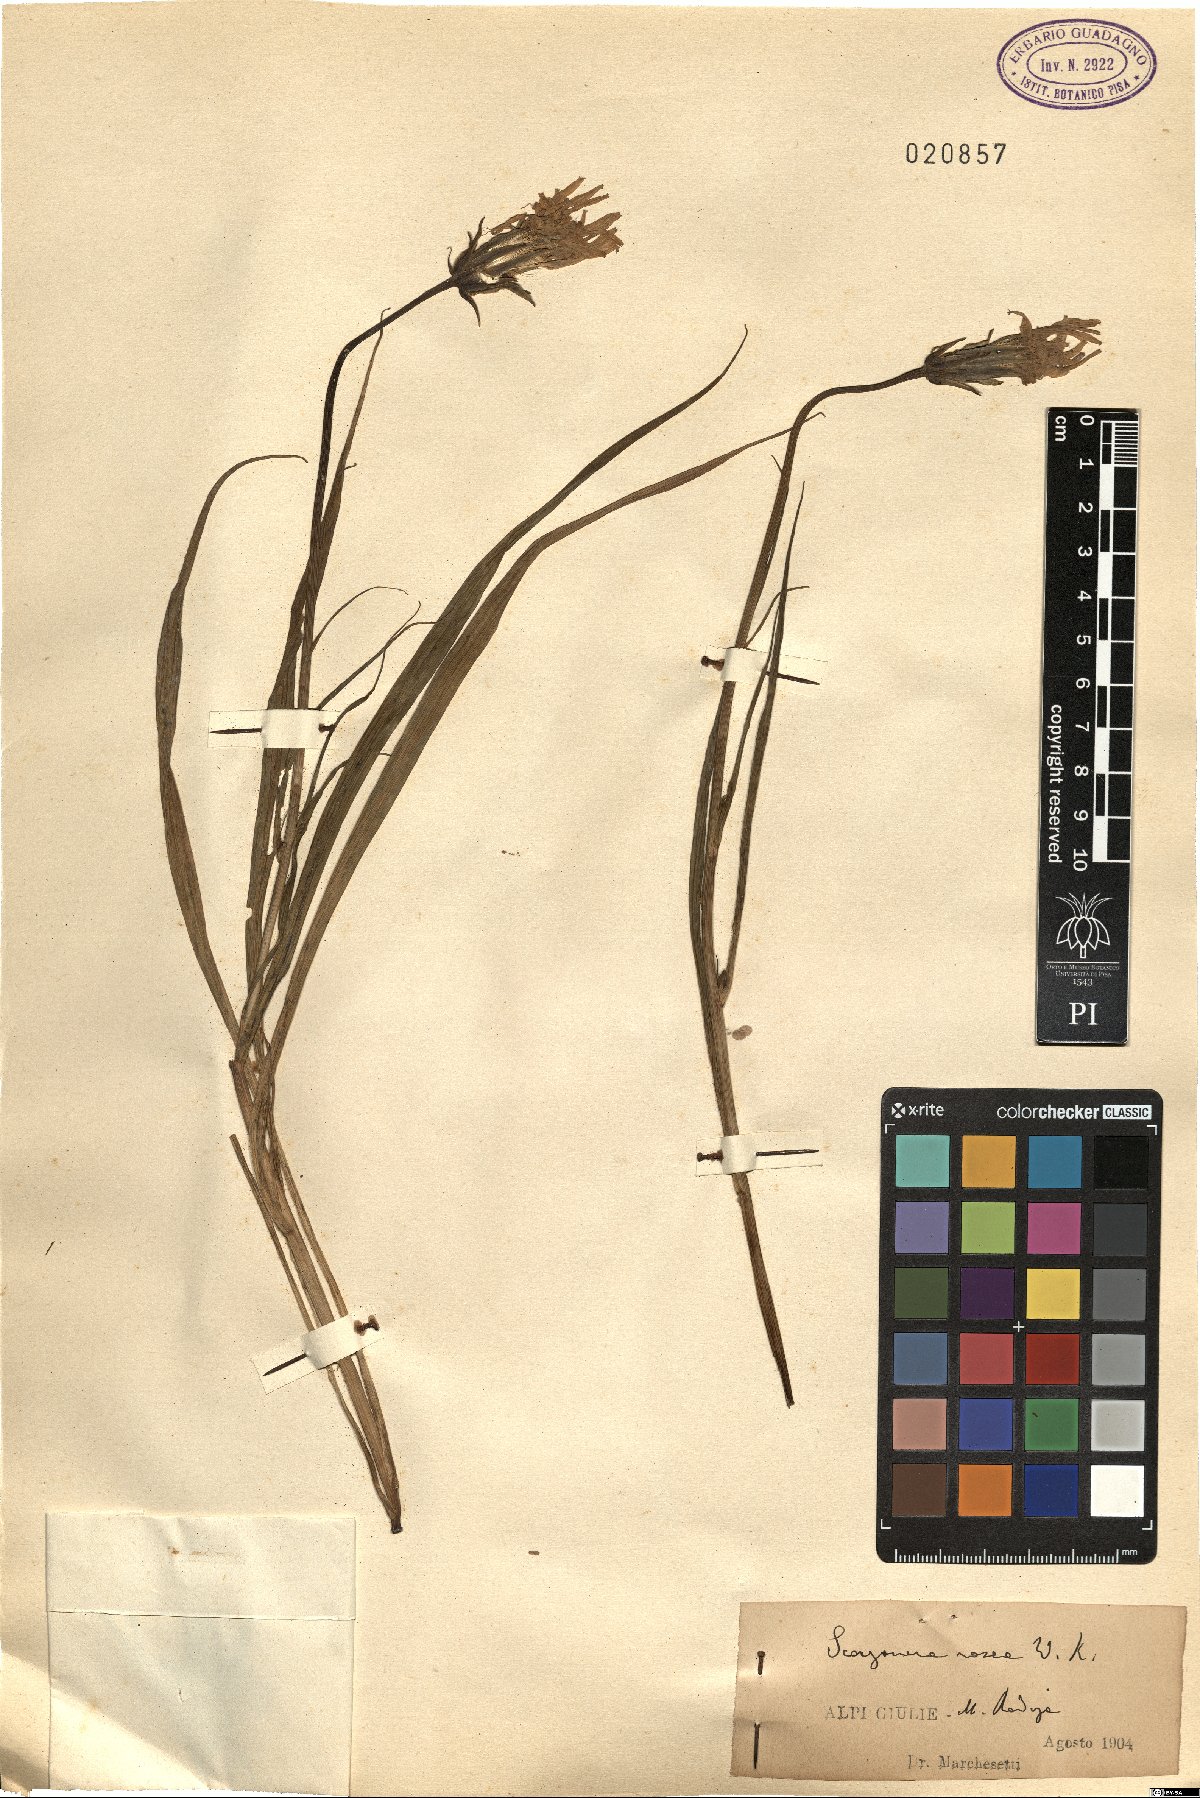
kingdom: Plantae
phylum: Tracheophyta
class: Magnoliopsida
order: Asterales
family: Asteraceae
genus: Scorzonera
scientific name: Scorzonera rosea
